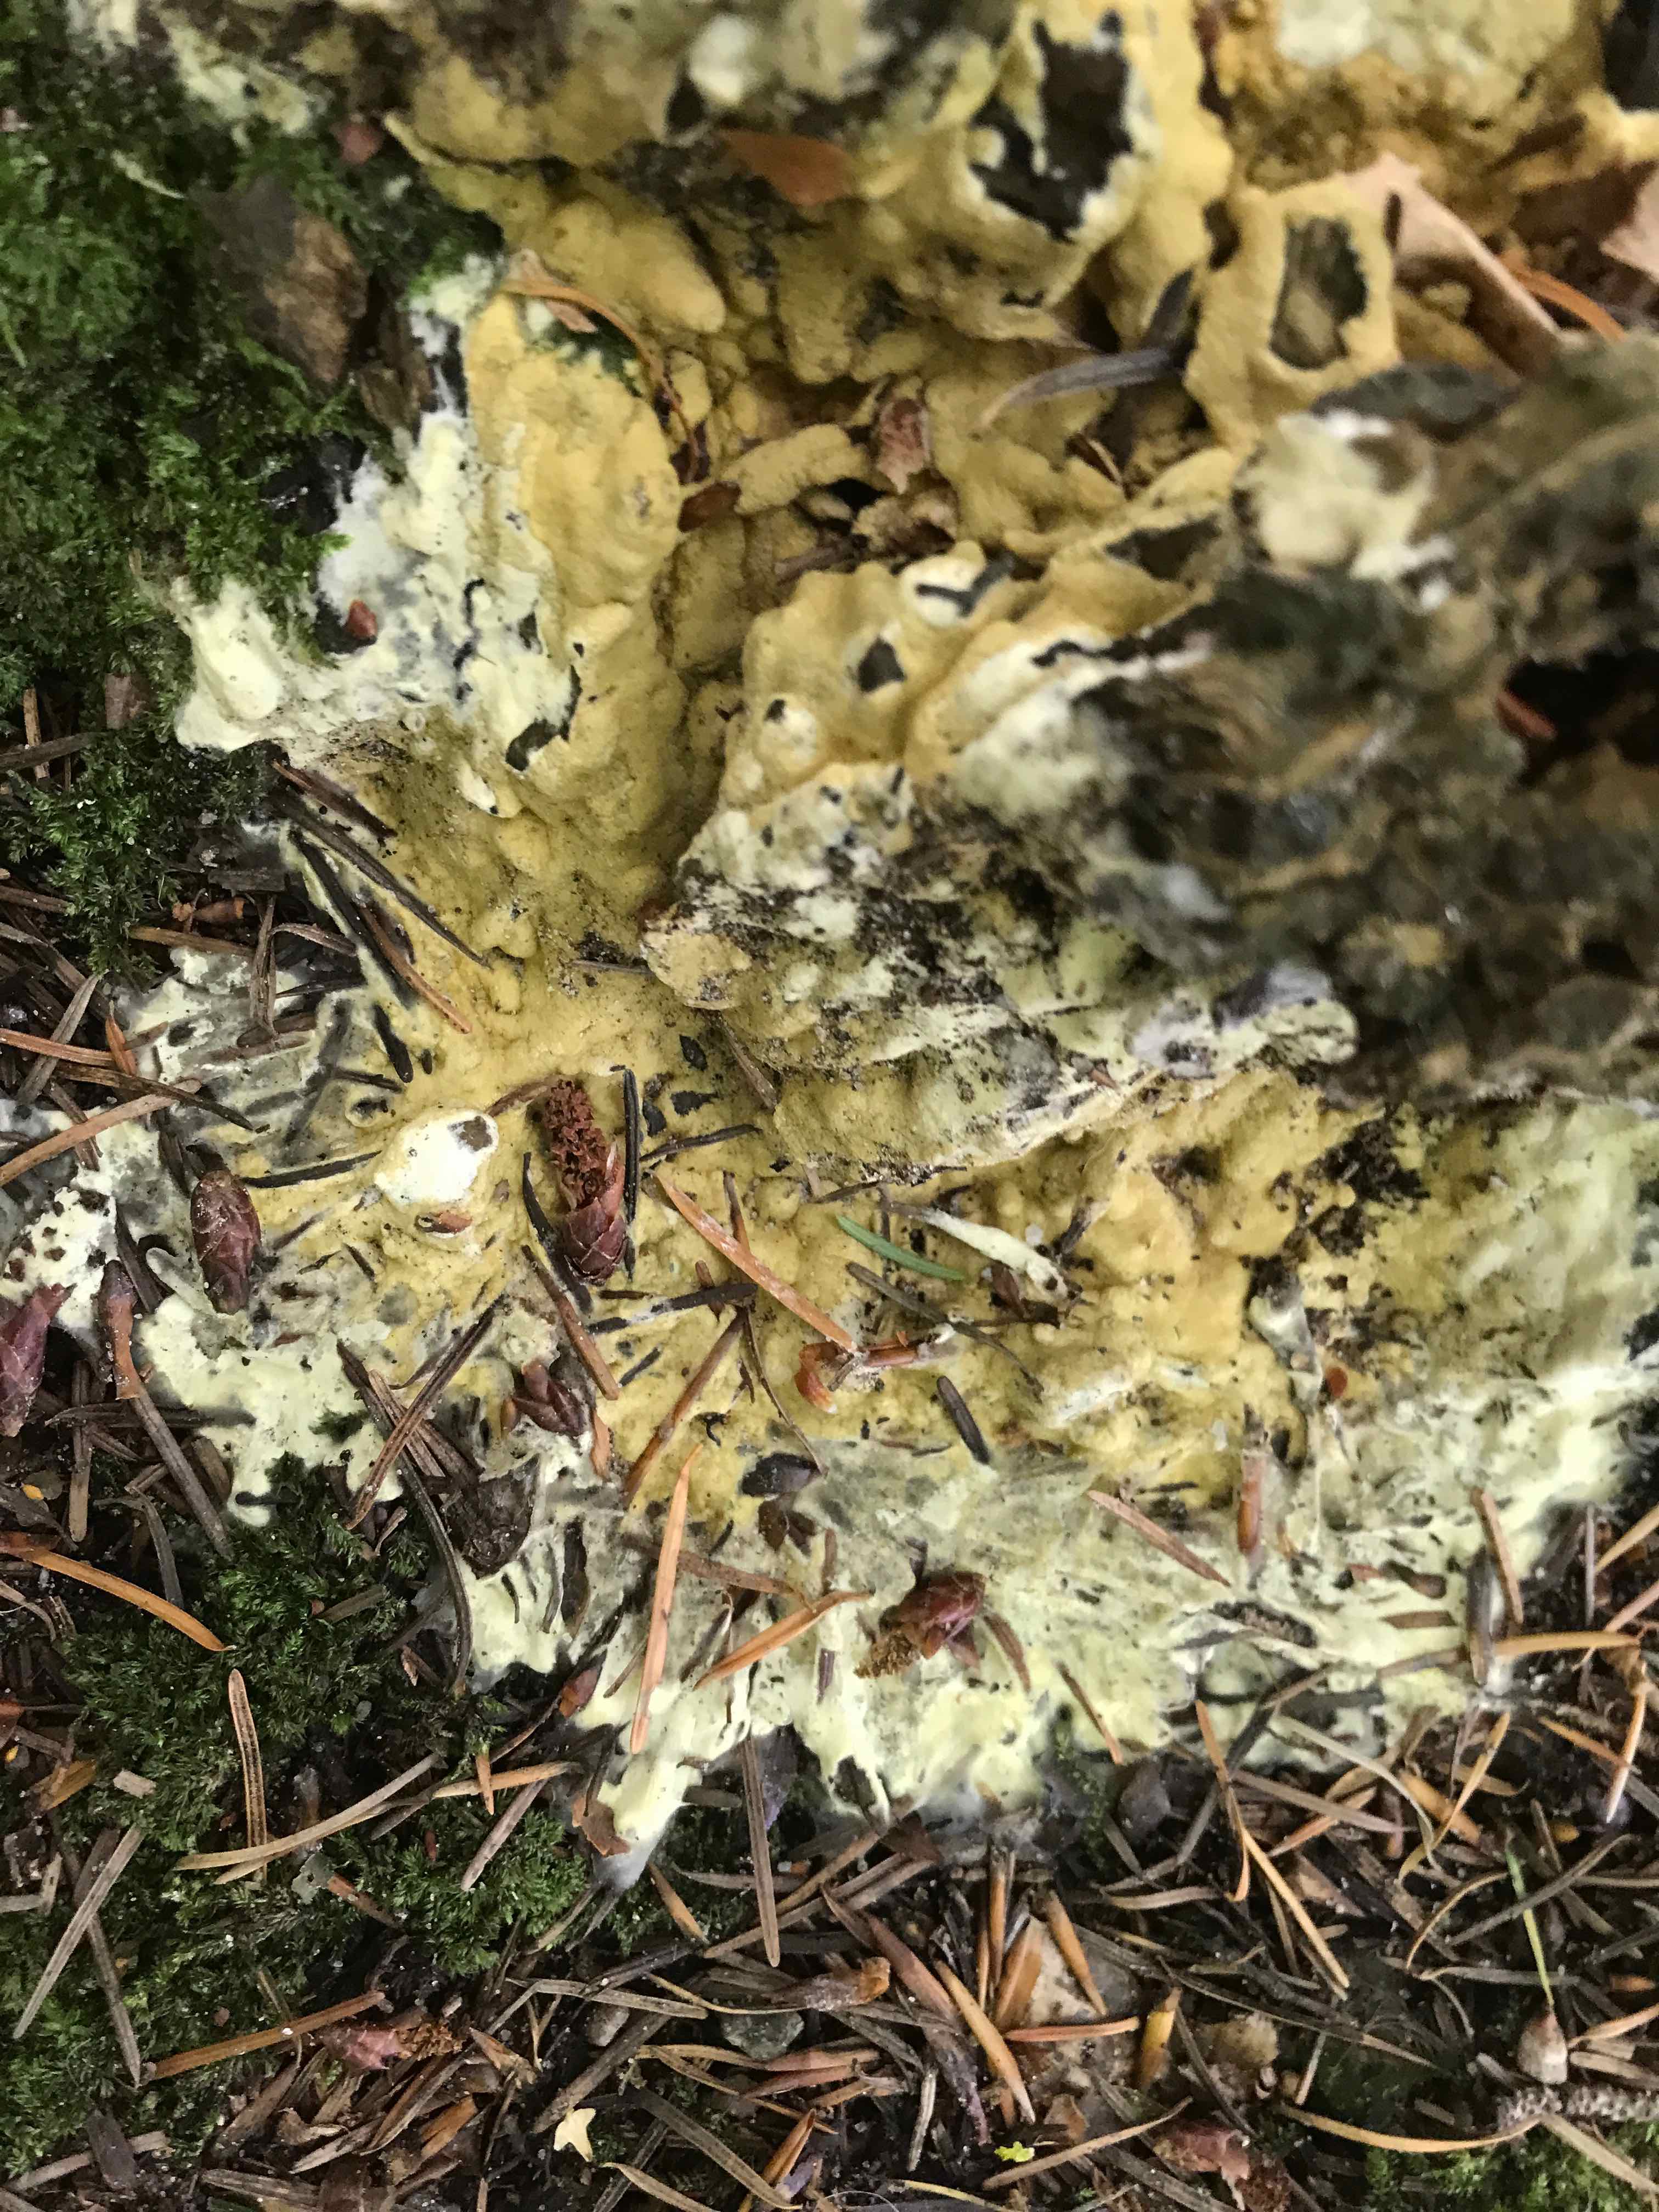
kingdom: Fungi
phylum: Ascomycota
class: Sordariomycetes
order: Hypocreales
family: Hypocreaceae
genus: Trichoderma
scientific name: Trichoderma citrinum
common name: udbredt kødkerne
